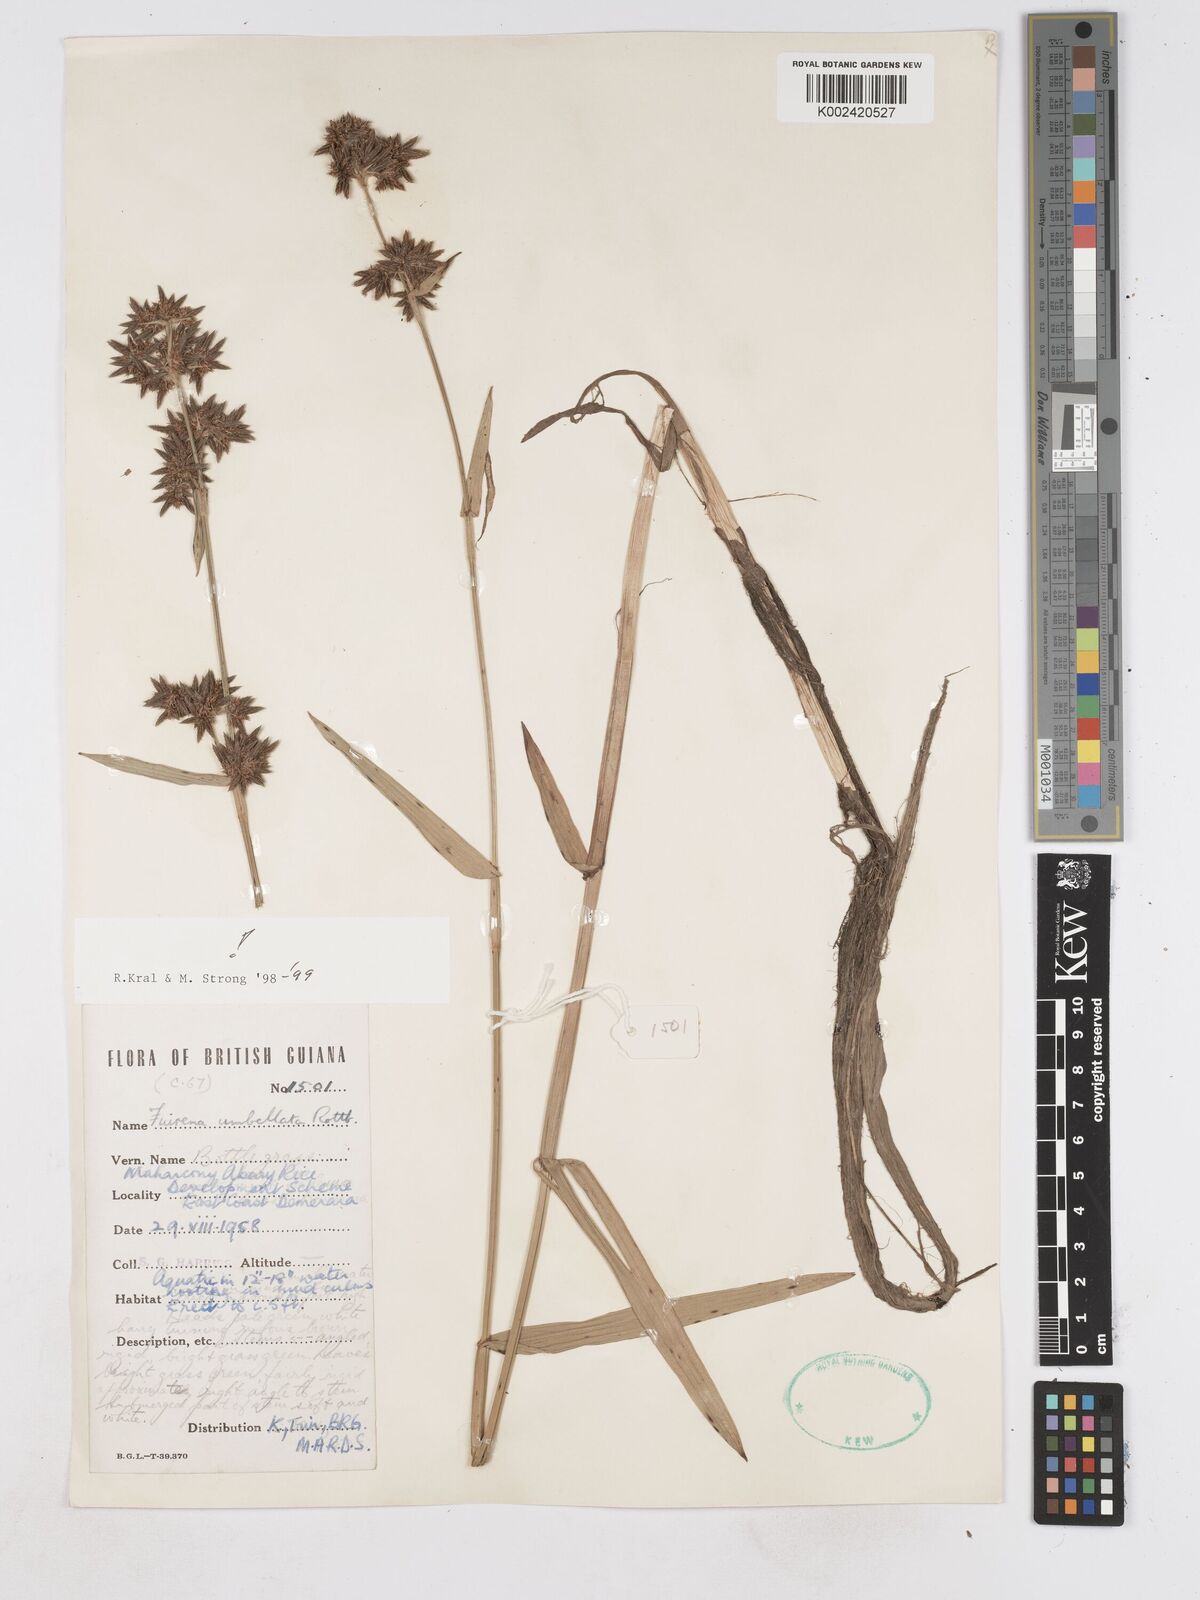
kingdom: Plantae
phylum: Tracheophyta
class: Liliopsida
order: Poales
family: Cyperaceae
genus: Fuirena
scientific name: Fuirena umbellata
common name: Yefen
